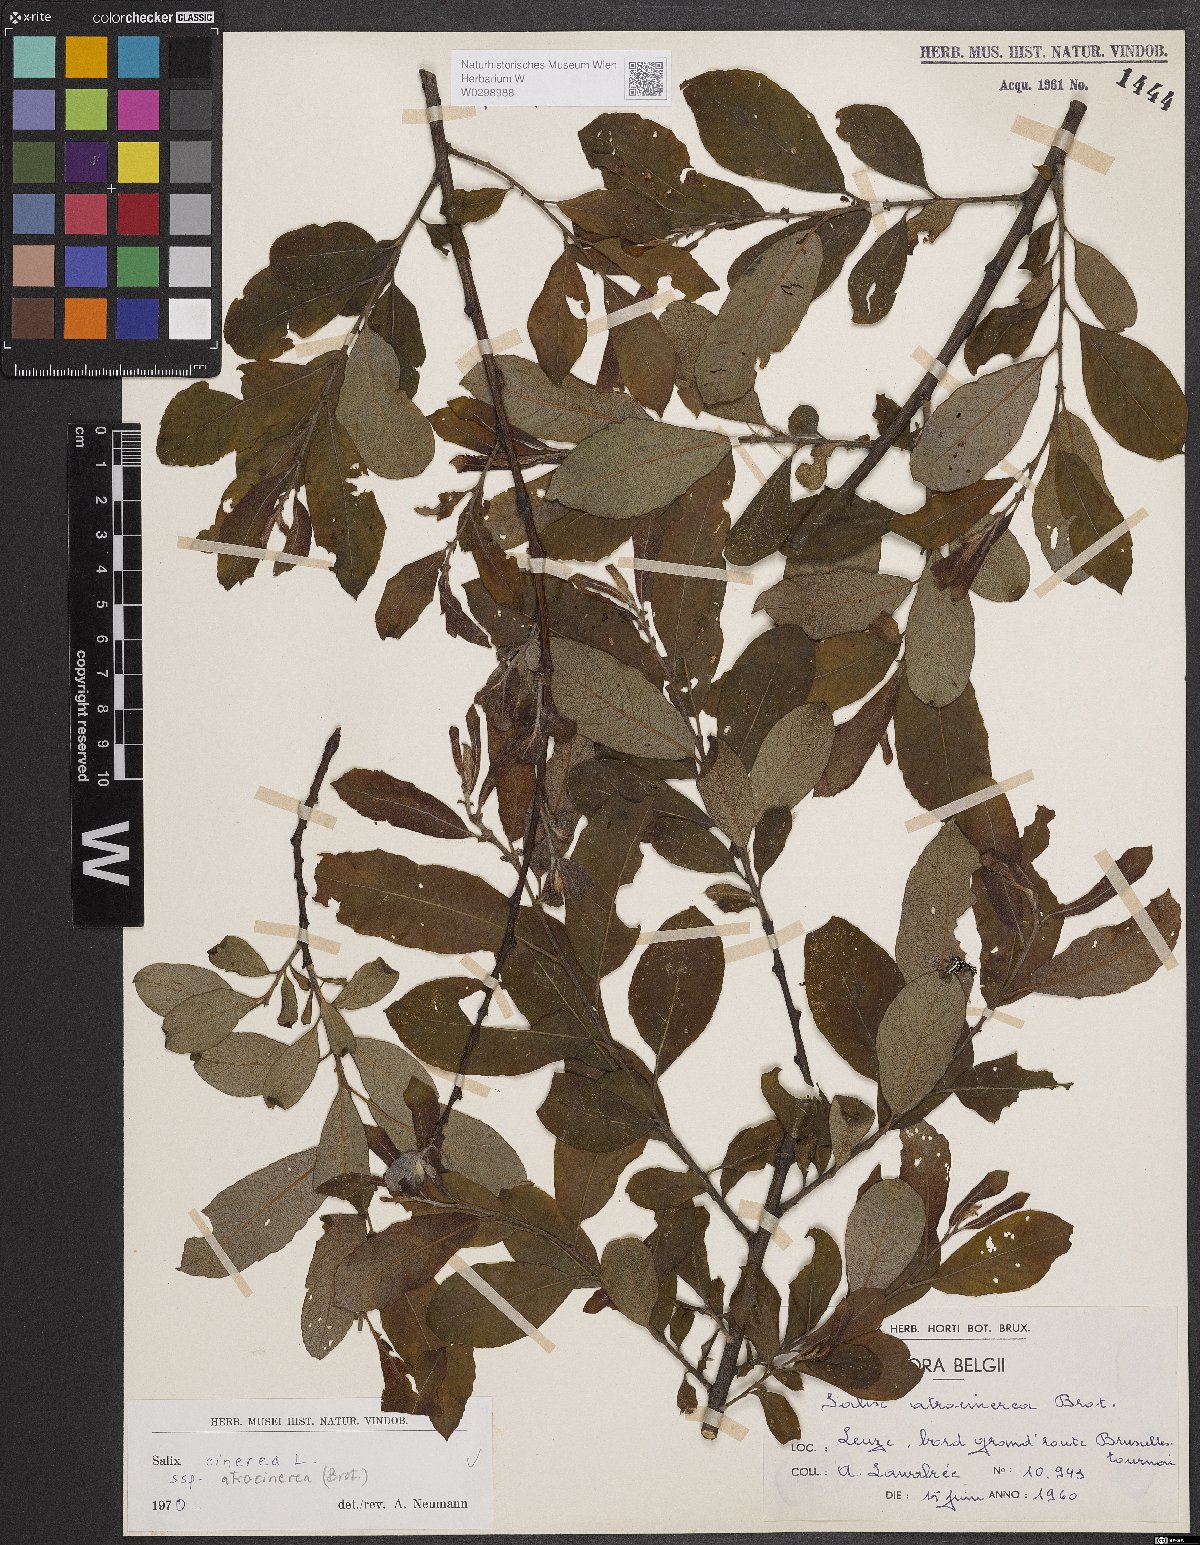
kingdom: Plantae
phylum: Tracheophyta
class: Magnoliopsida
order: Malpighiales
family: Salicaceae
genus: Salix
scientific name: Salix atrocinerea
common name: Rusty willow
